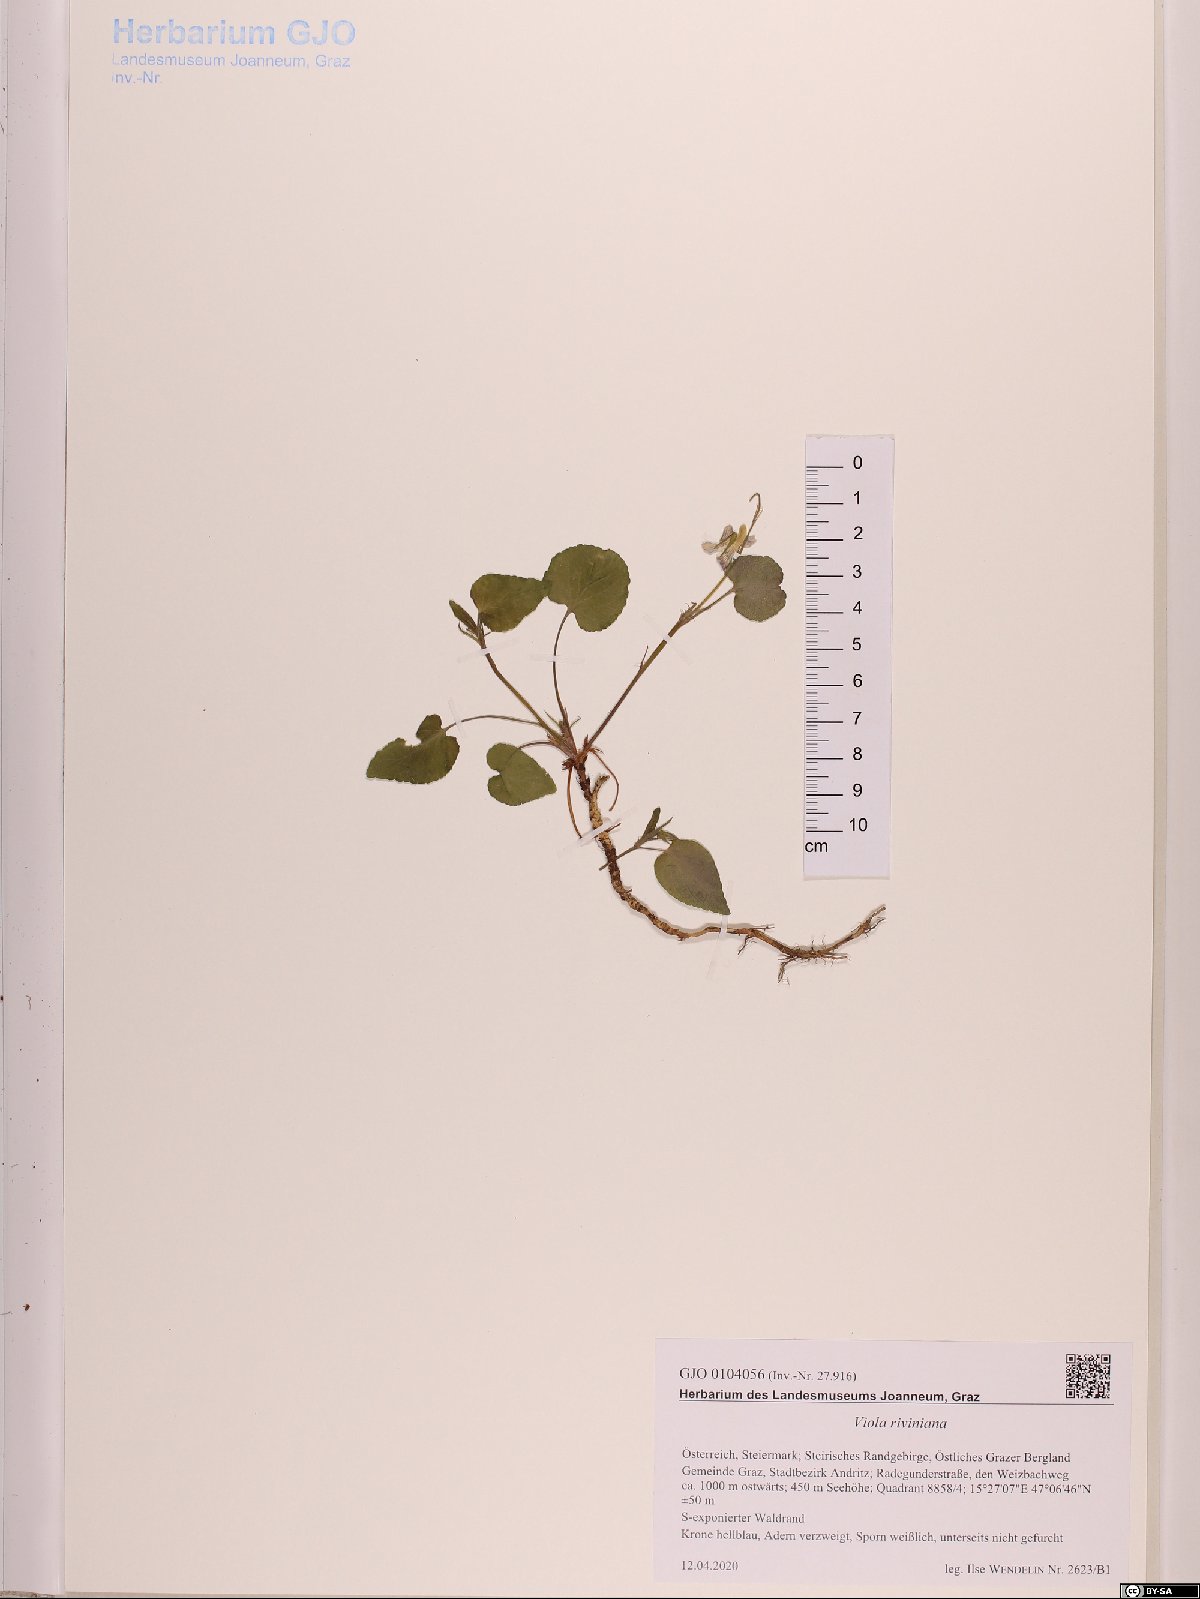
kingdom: Plantae
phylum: Tracheophyta
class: Magnoliopsida
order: Malpighiales
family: Violaceae
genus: Viola
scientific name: Viola riviniana
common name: Common dog-violet
